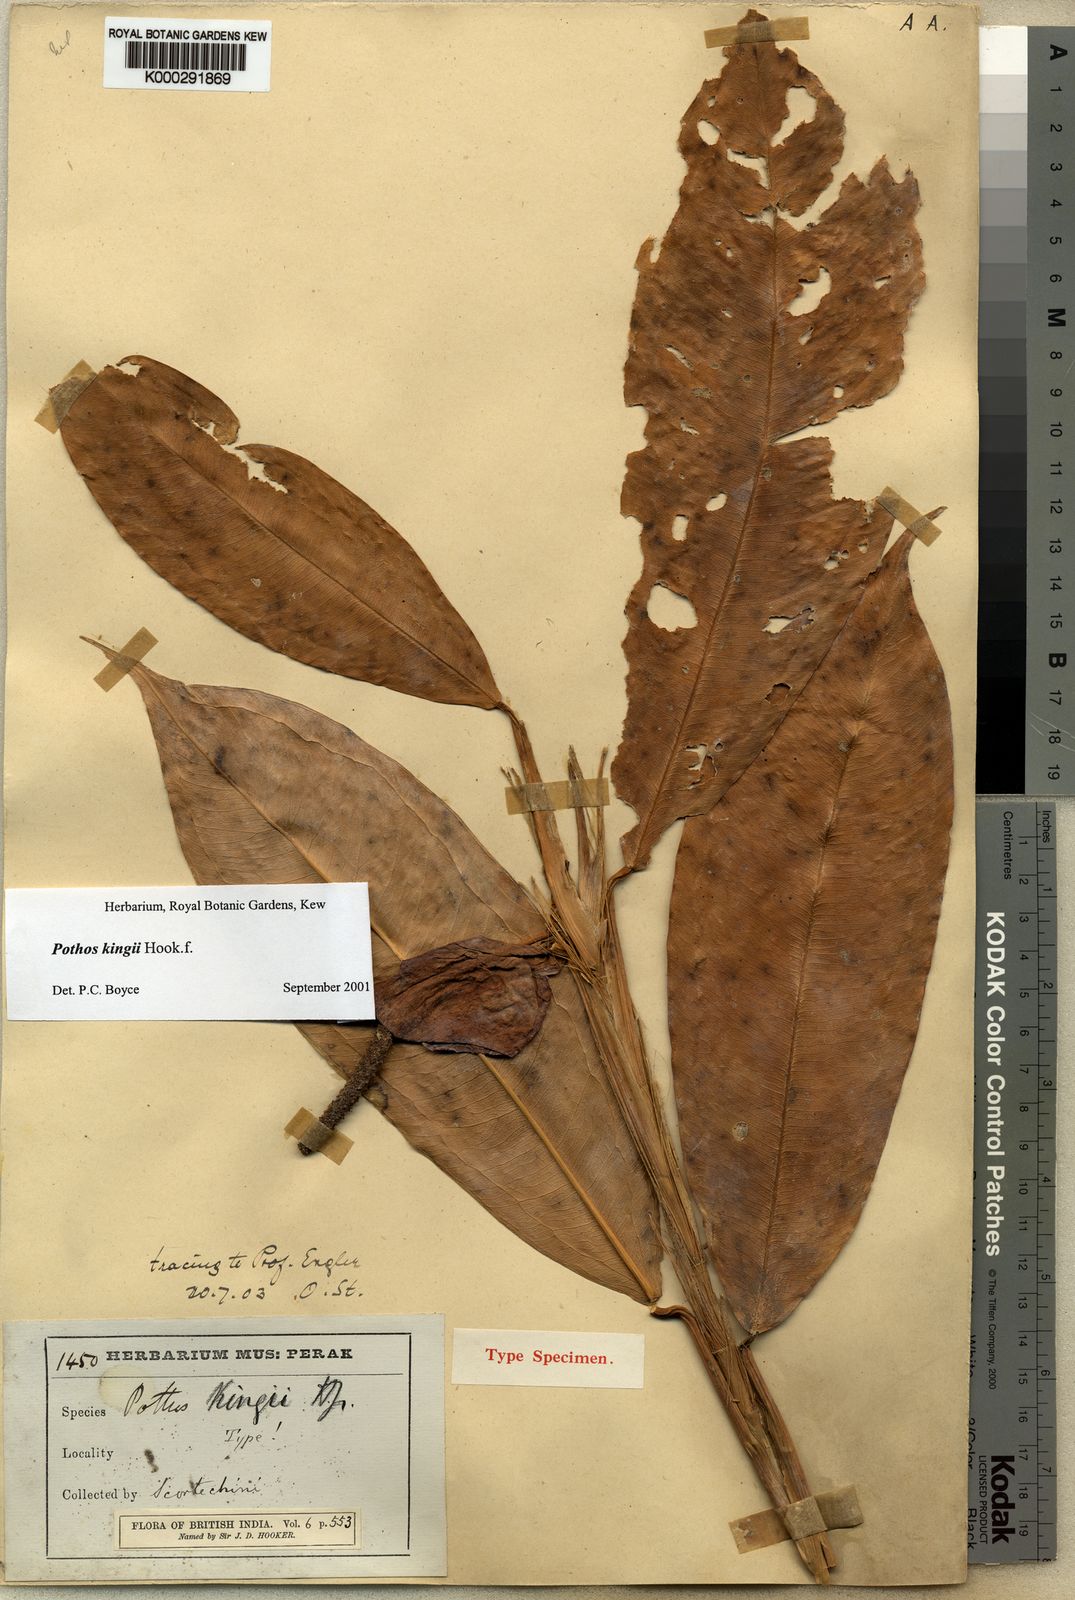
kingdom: Plantae
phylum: Tracheophyta
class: Liliopsida
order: Alismatales
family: Araceae
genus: Pothos
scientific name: Pothos kingii
